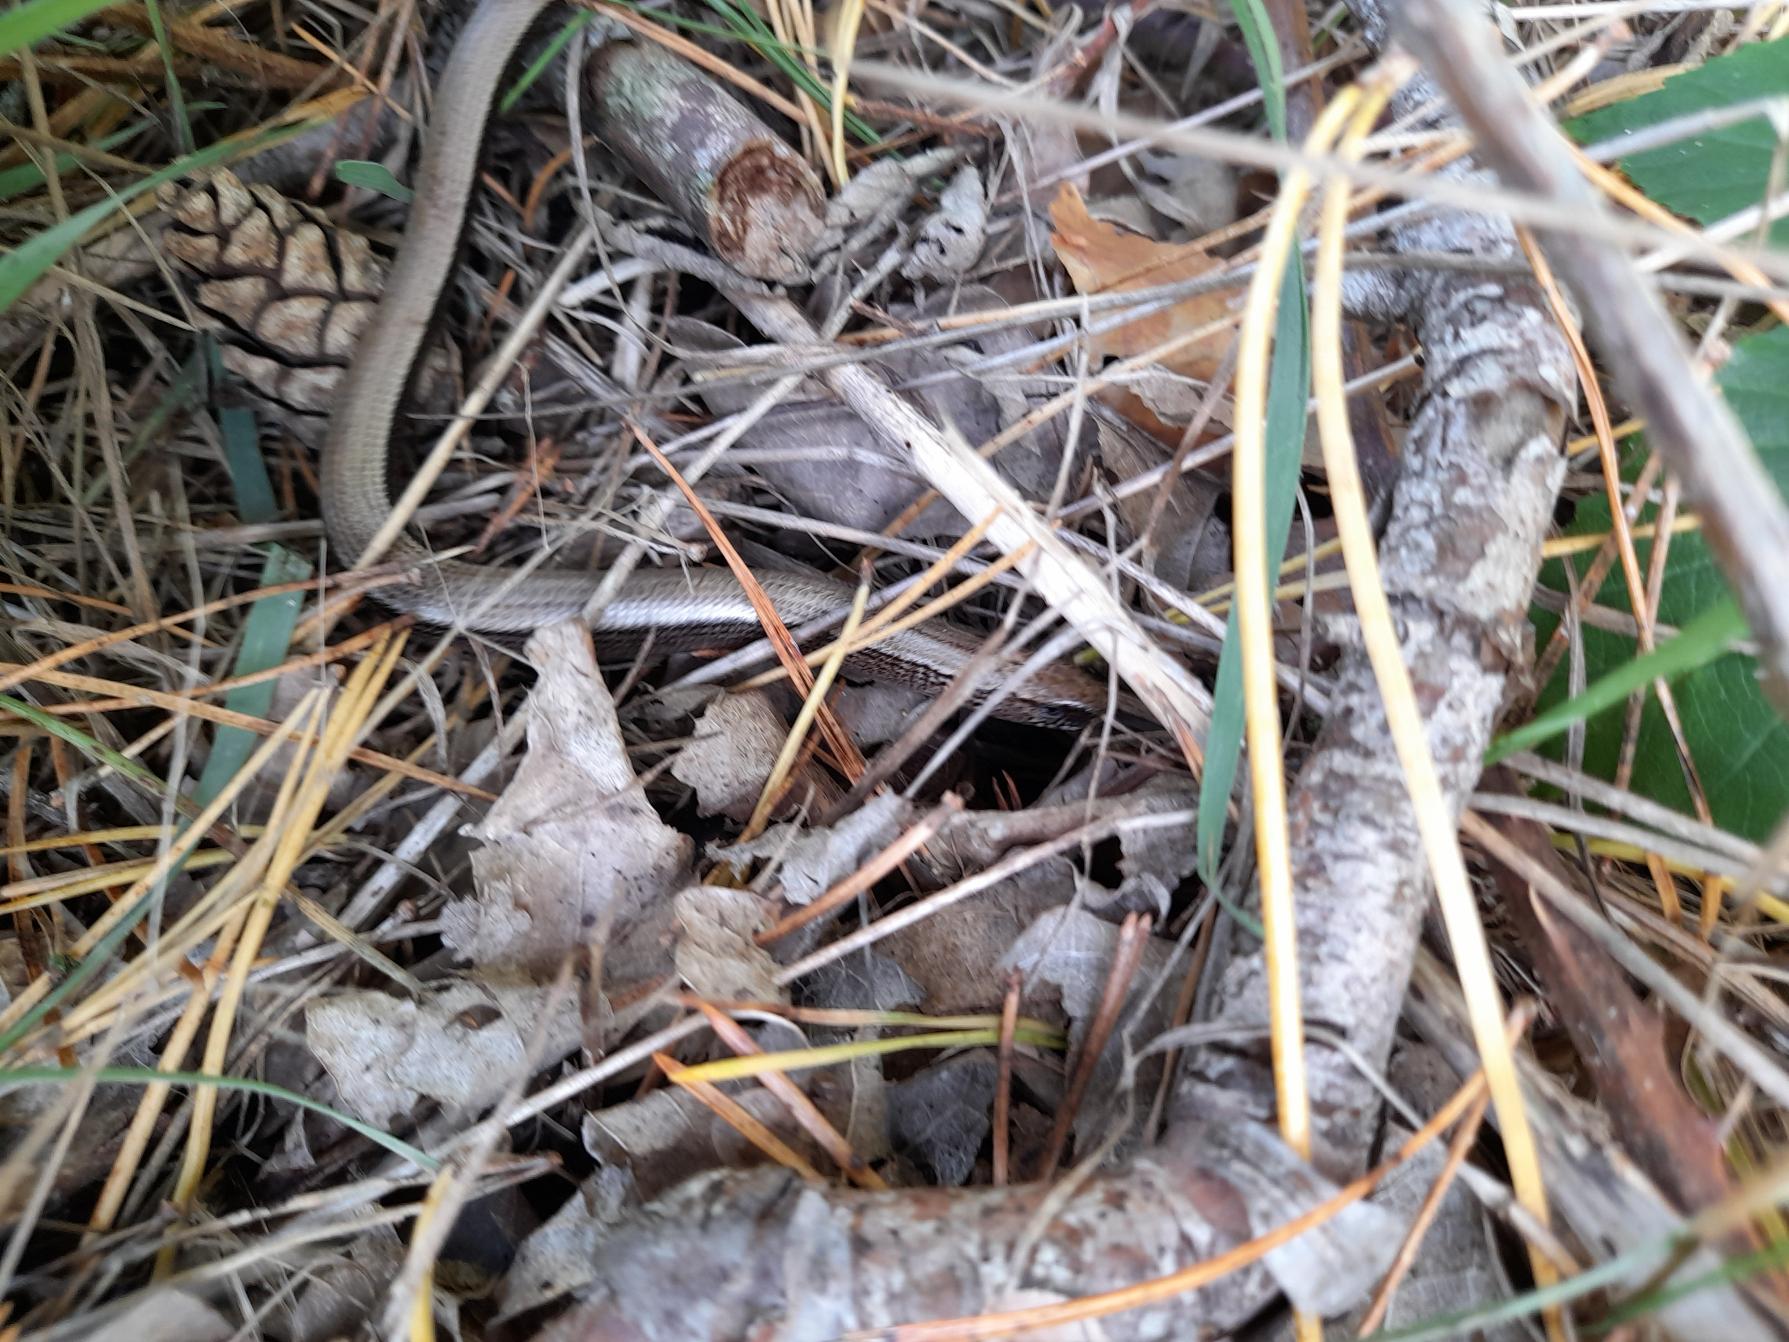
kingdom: Animalia
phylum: Chordata
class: Squamata
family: Anguidae
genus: Anguis
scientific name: Anguis fragilis
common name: Stålorm
